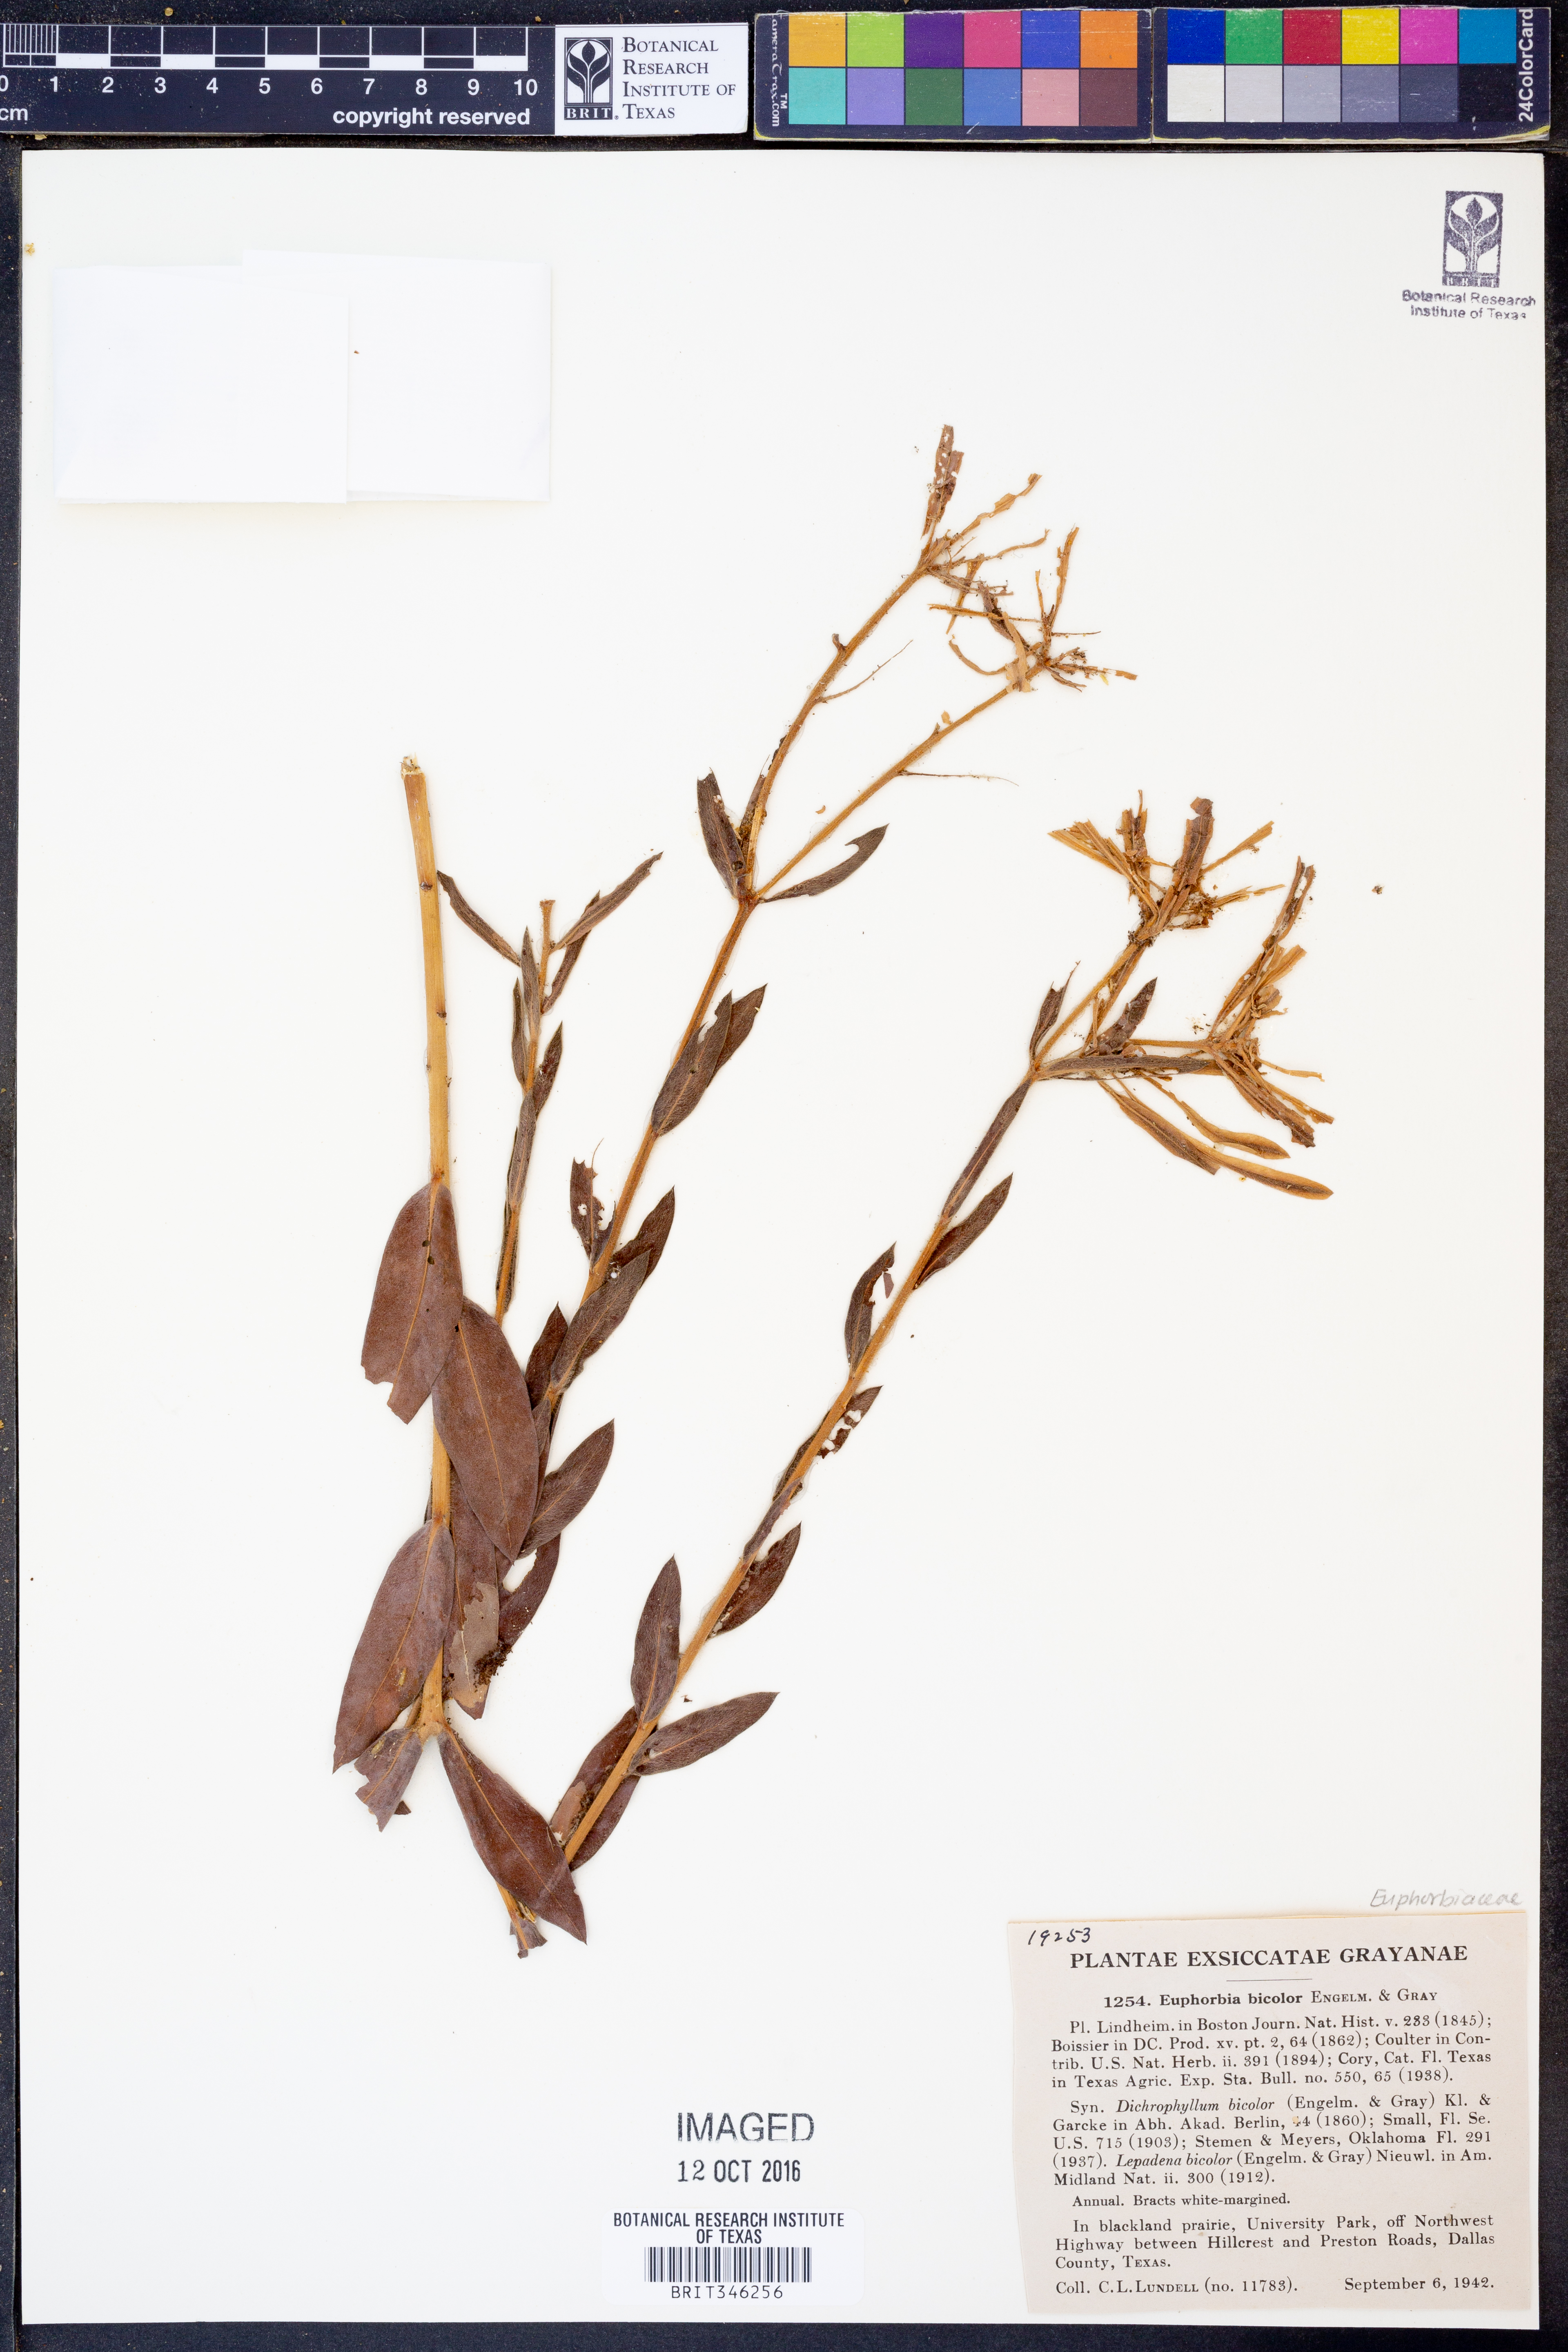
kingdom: Plantae
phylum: Tracheophyta
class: Magnoliopsida
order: Malpighiales
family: Euphorbiaceae
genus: Euphorbia
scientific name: Euphorbia bicolor
